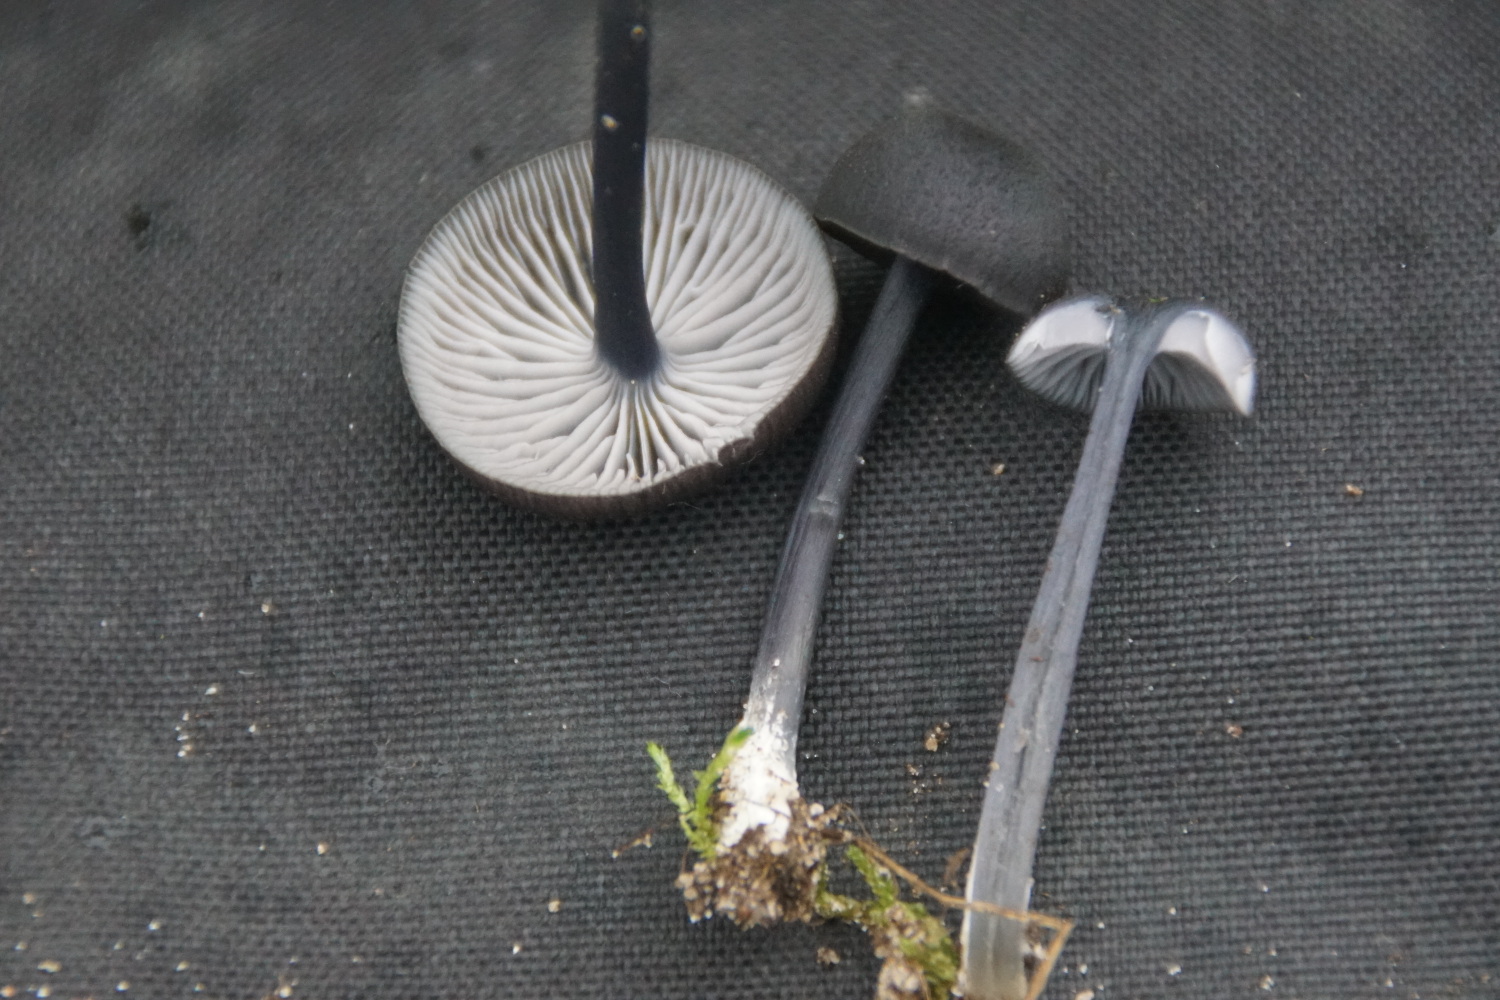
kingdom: Fungi
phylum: Basidiomycota
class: Agaricomycetes
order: Agaricales
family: Entolomataceae
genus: Entoloma
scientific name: Entoloma chalybeum
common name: blåbladet rødblad
